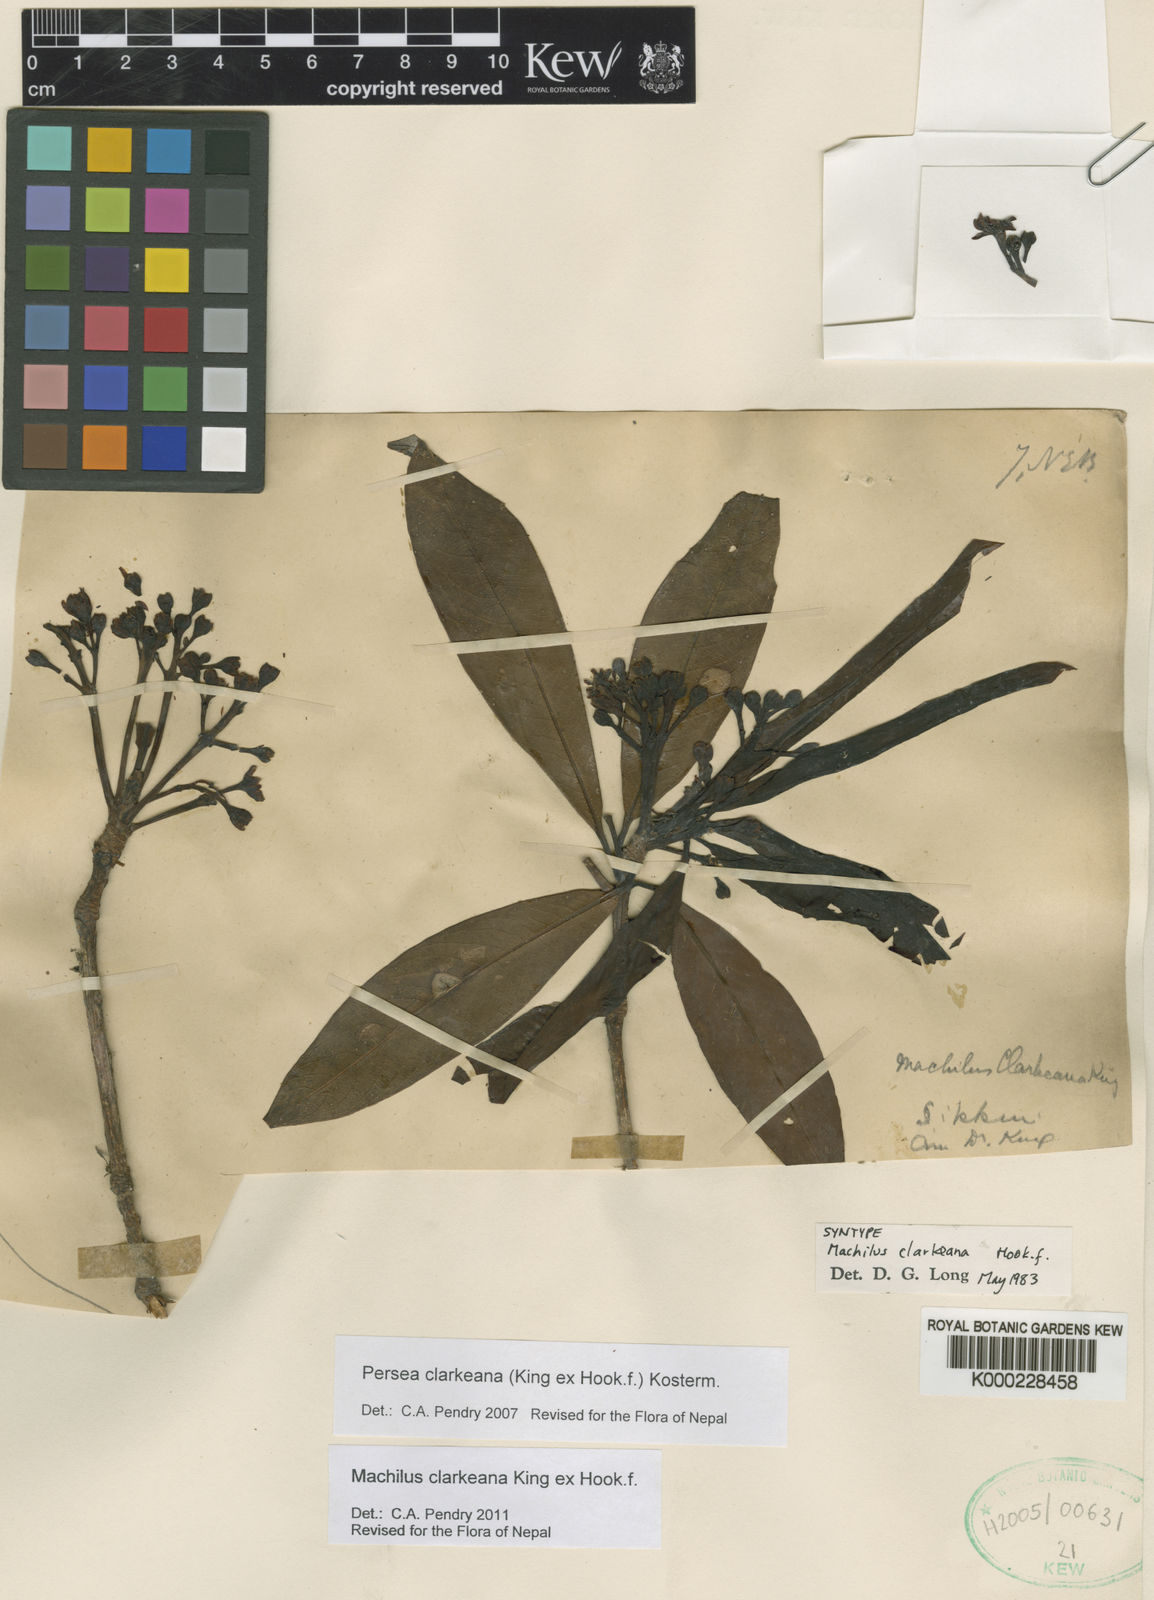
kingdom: Plantae
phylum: Tracheophyta
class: Magnoliopsida
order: Laurales
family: Lauraceae
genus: Machilus
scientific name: Machilus clarkeana
